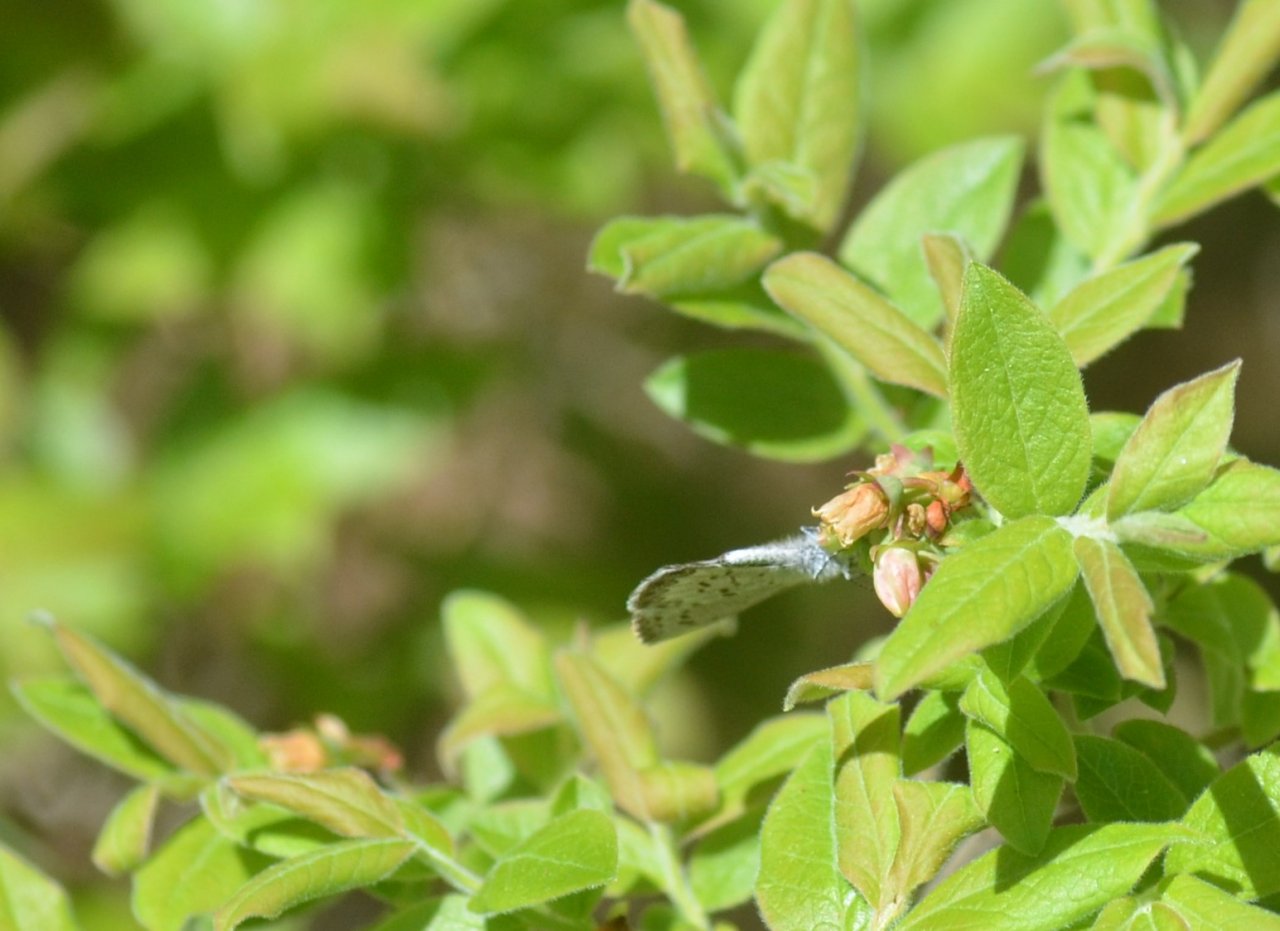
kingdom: Animalia
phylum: Arthropoda
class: Insecta
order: Lepidoptera
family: Lycaenidae
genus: Celastrina
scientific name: Celastrina lucia
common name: Northern Spring Azure
